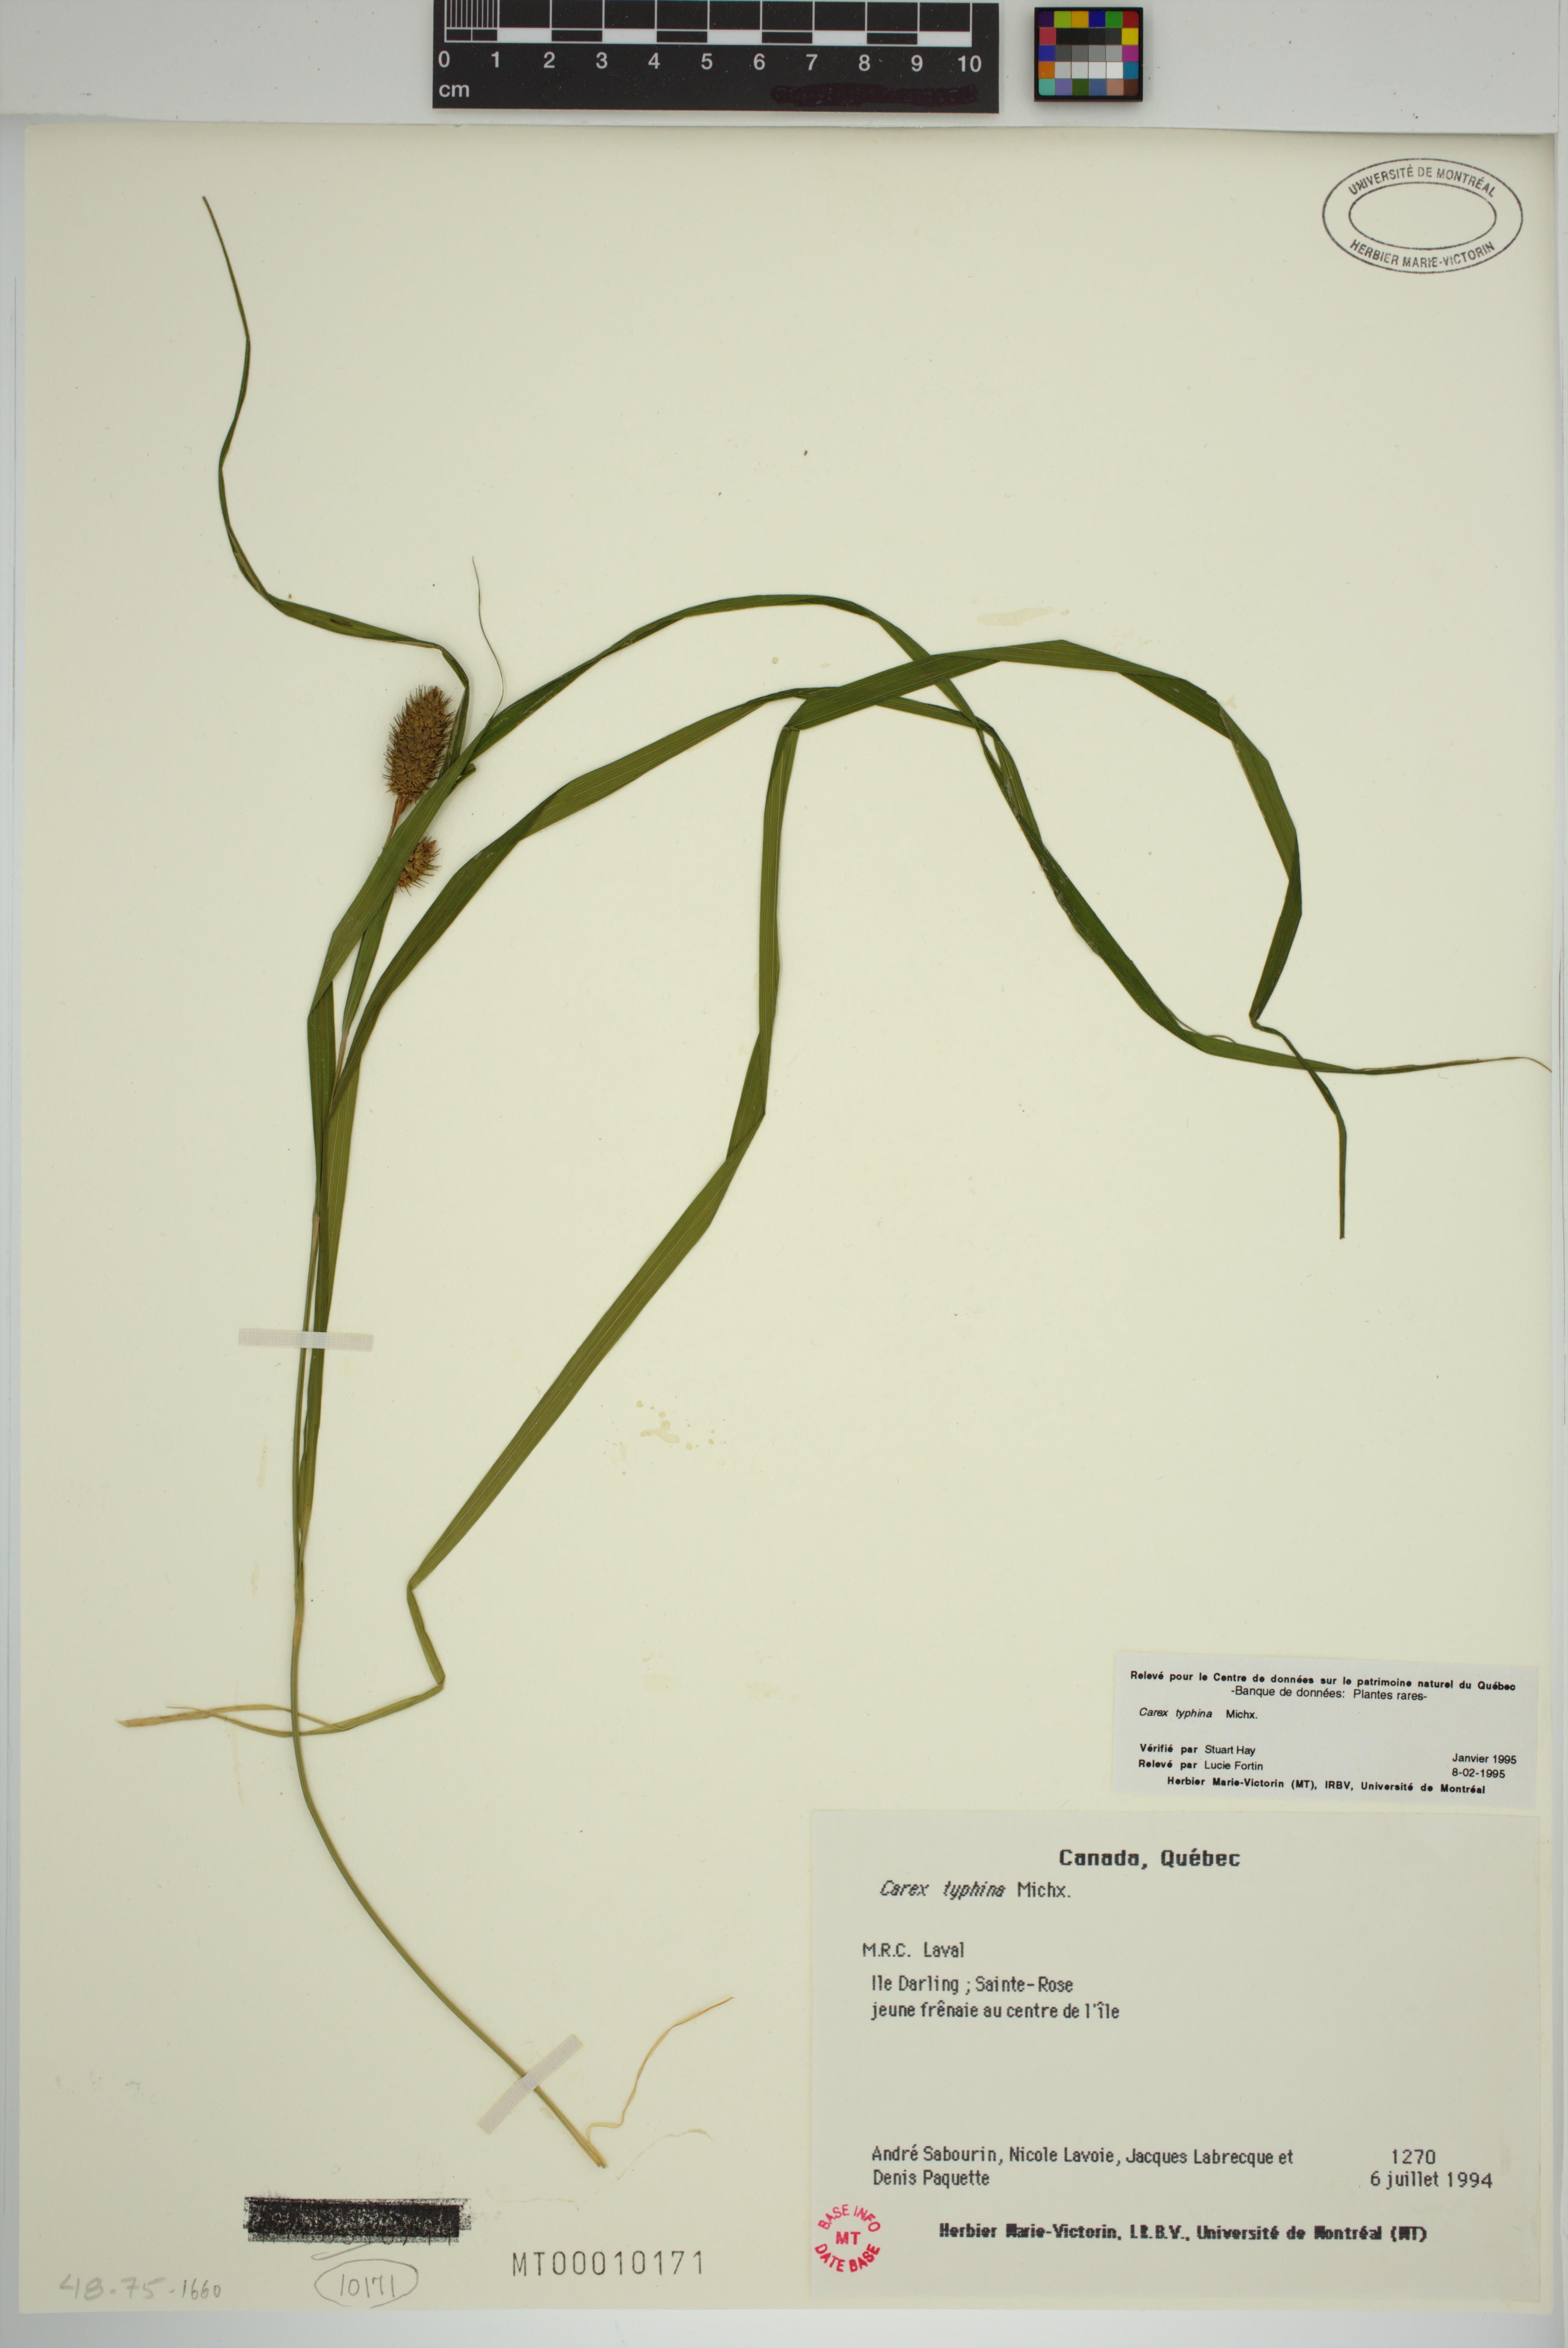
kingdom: Plantae
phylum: Tracheophyta
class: Liliopsida
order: Poales
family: Cyperaceae
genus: Carex
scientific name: Carex typhina
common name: Cattail sedge
